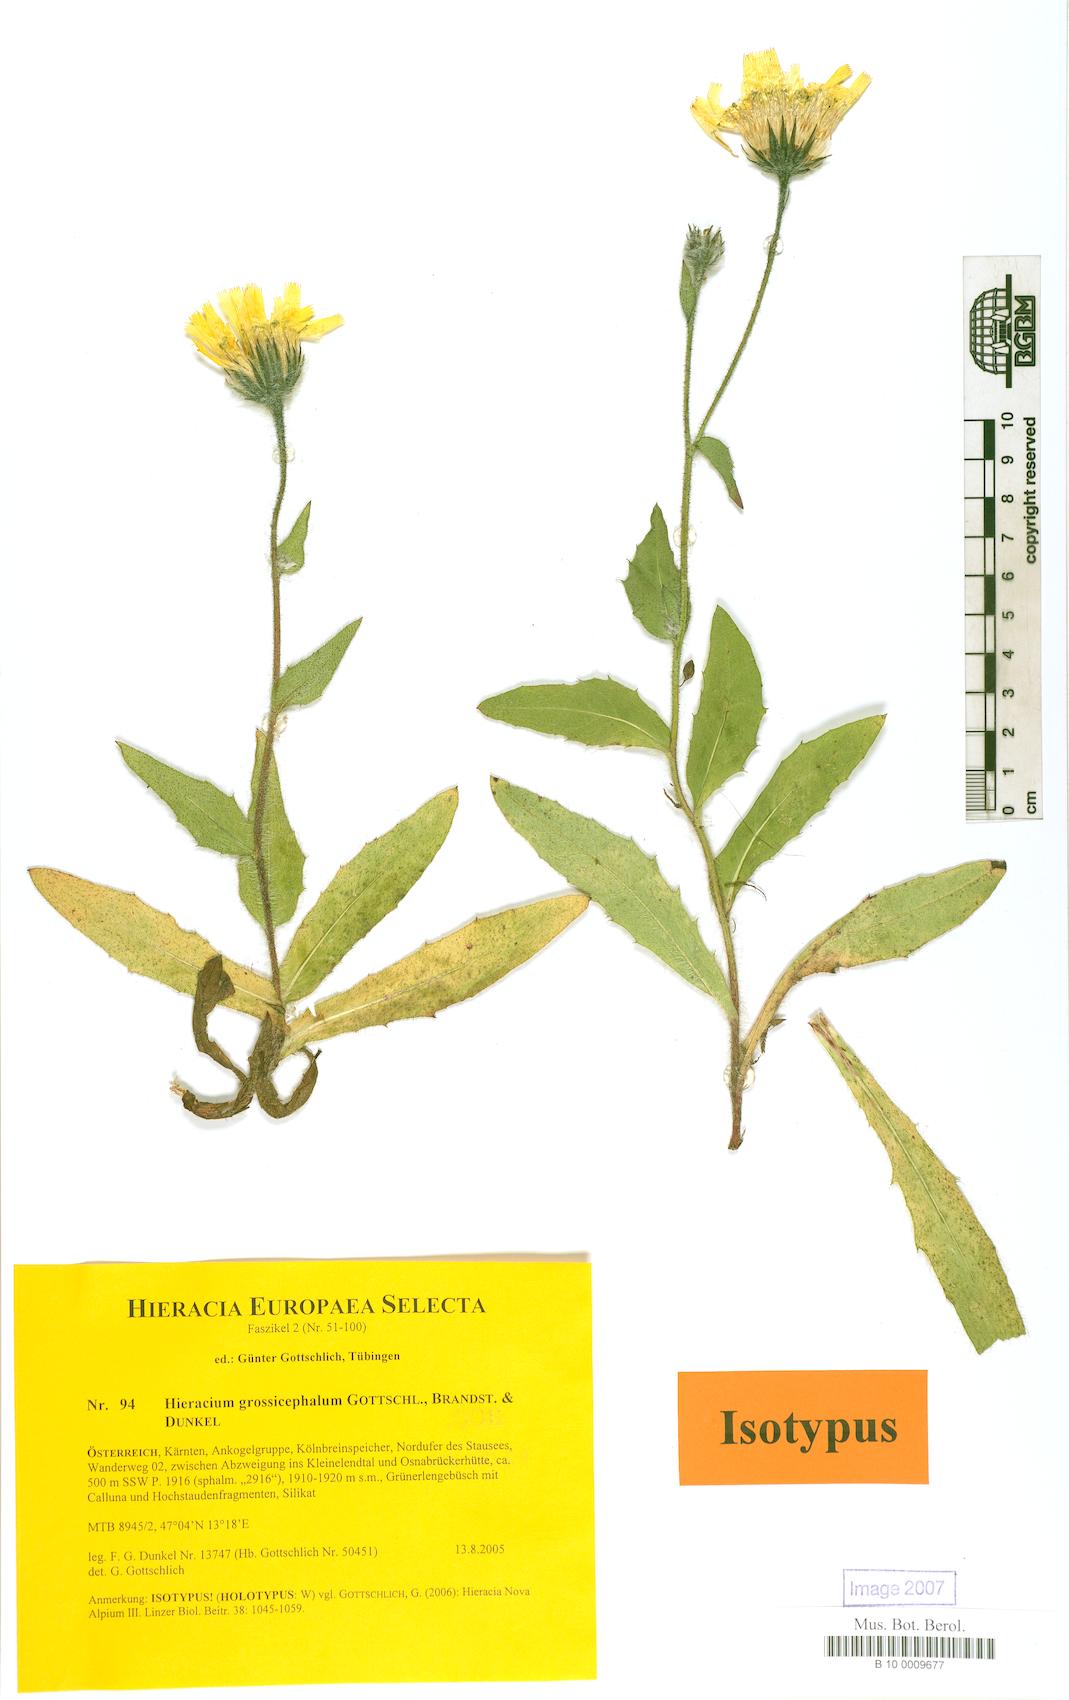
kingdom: Plantae
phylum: Tracheophyta
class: Magnoliopsida
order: Asterales
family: Asteraceae
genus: Hieracium
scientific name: Hieracium grossicephalum
